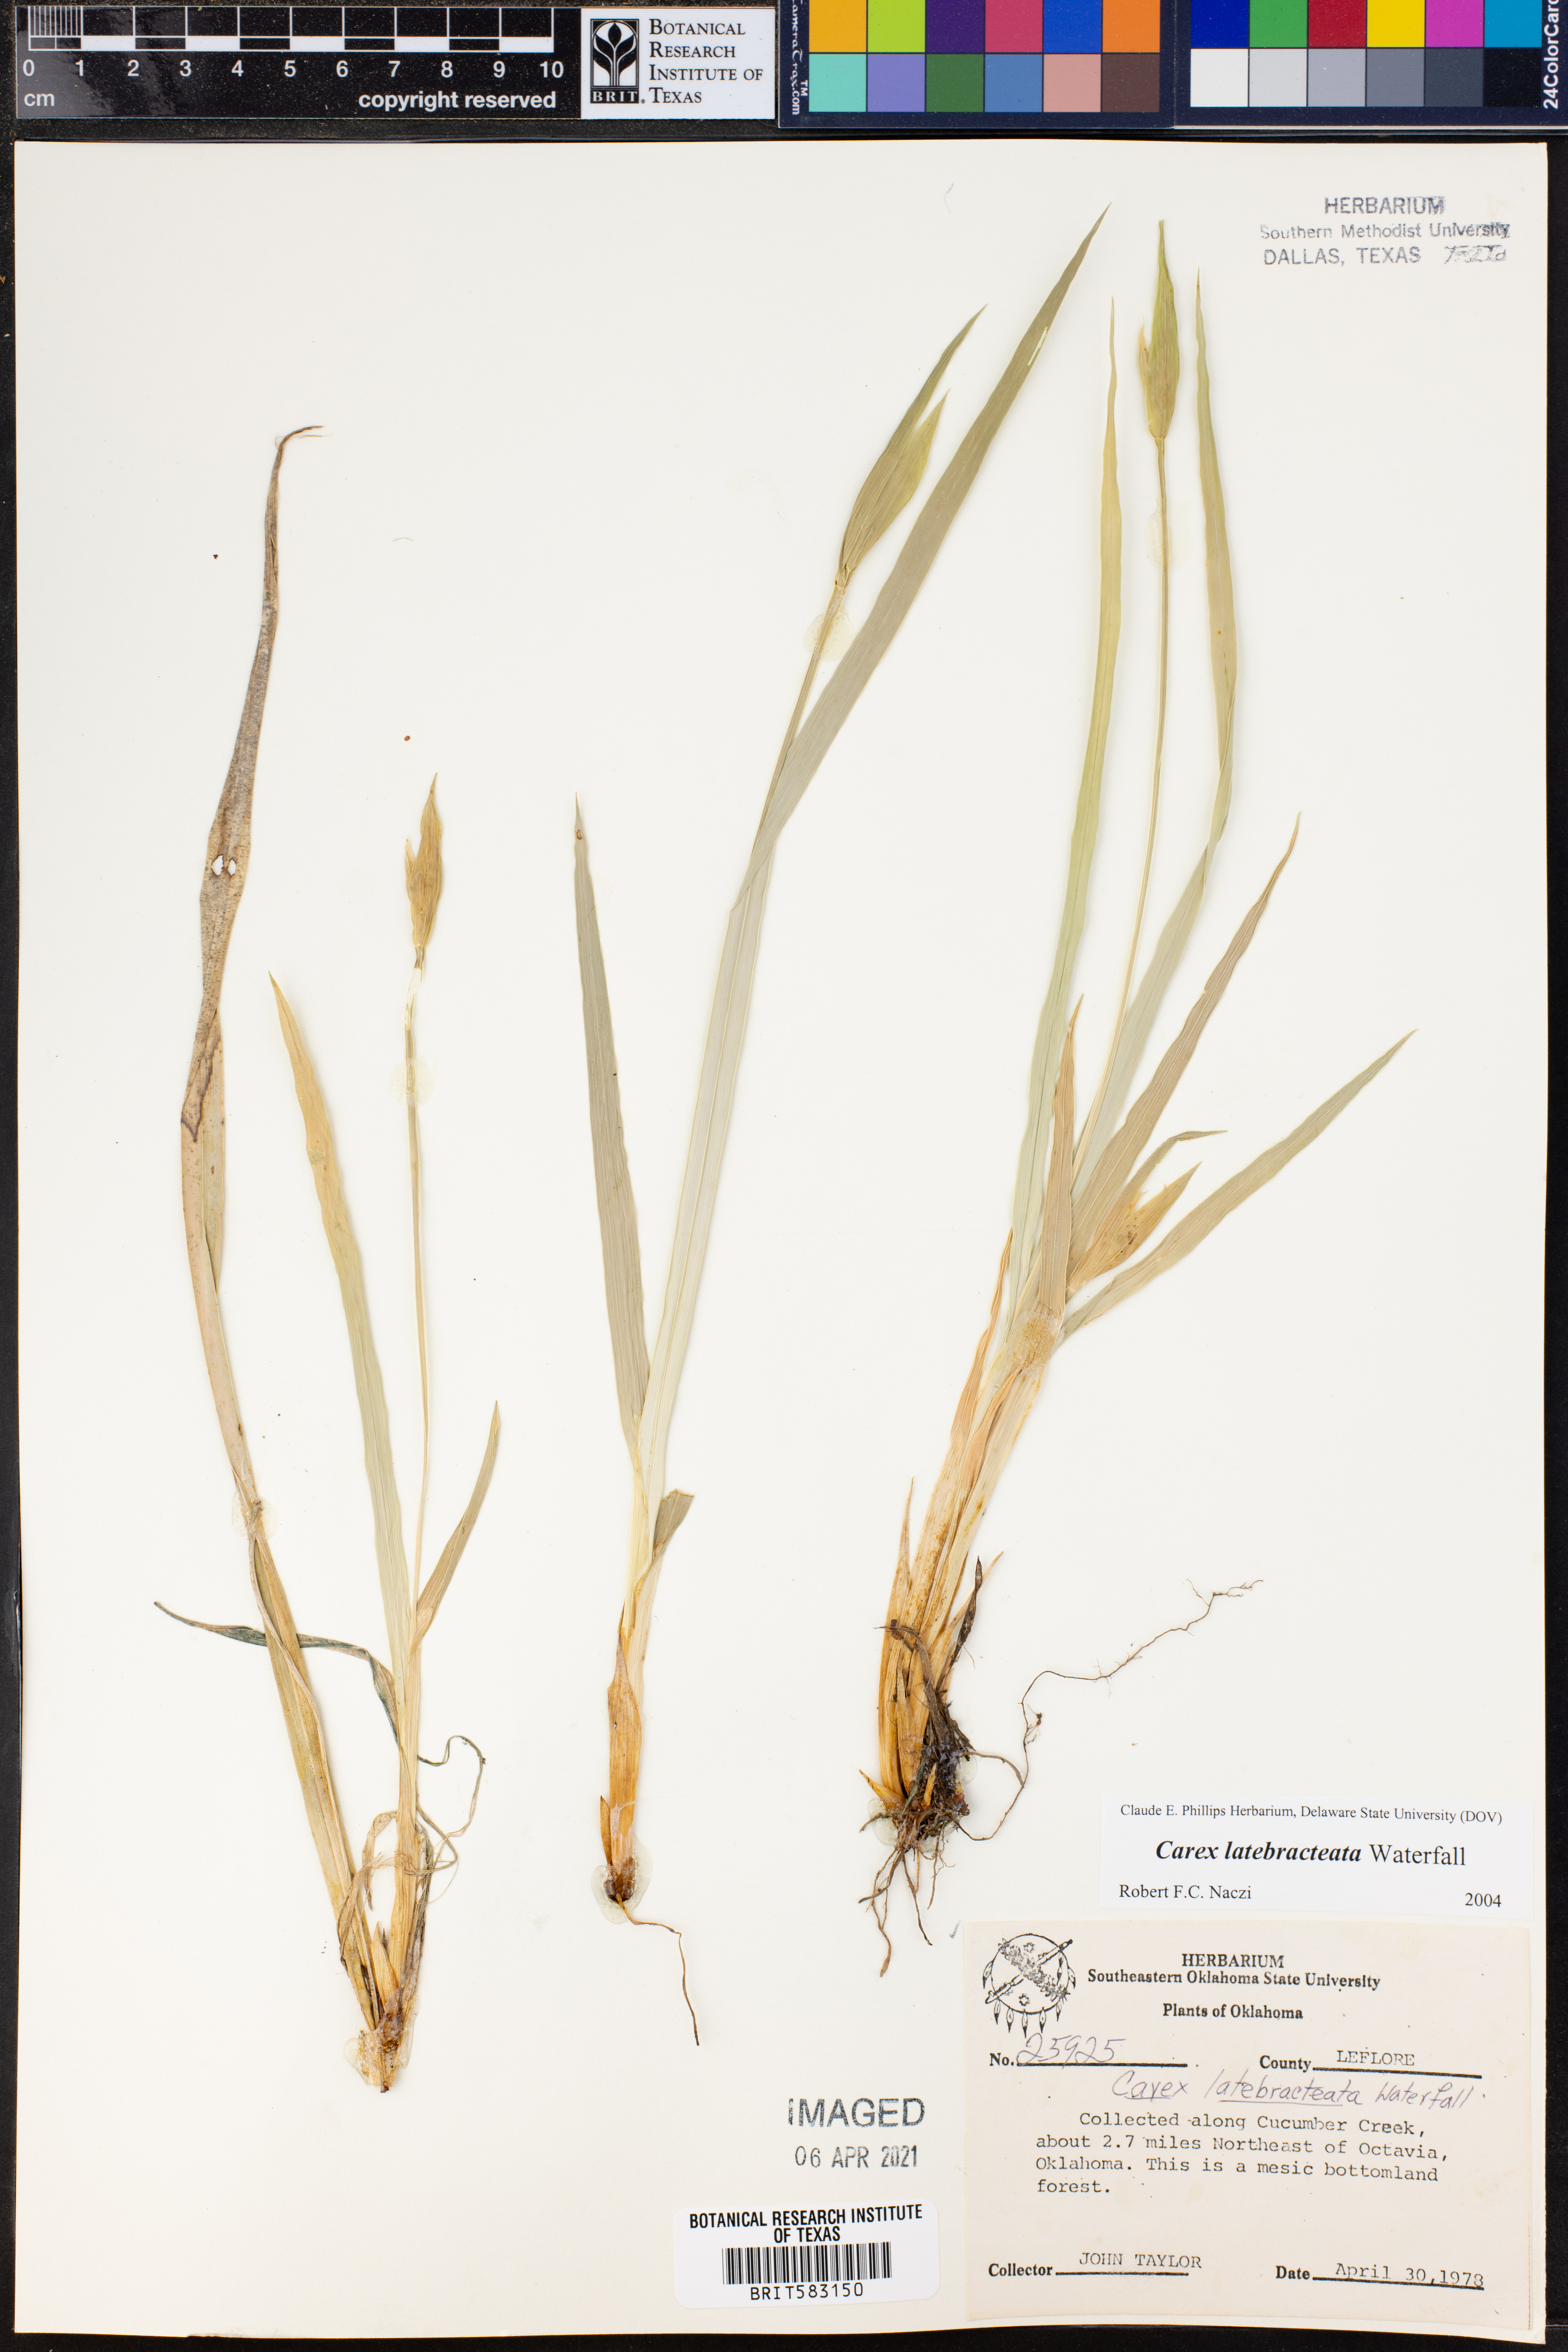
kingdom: Plantae
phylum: Tracheophyta
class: Liliopsida
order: Poales
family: Cyperaceae
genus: Carex
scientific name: Carex latebracteata
